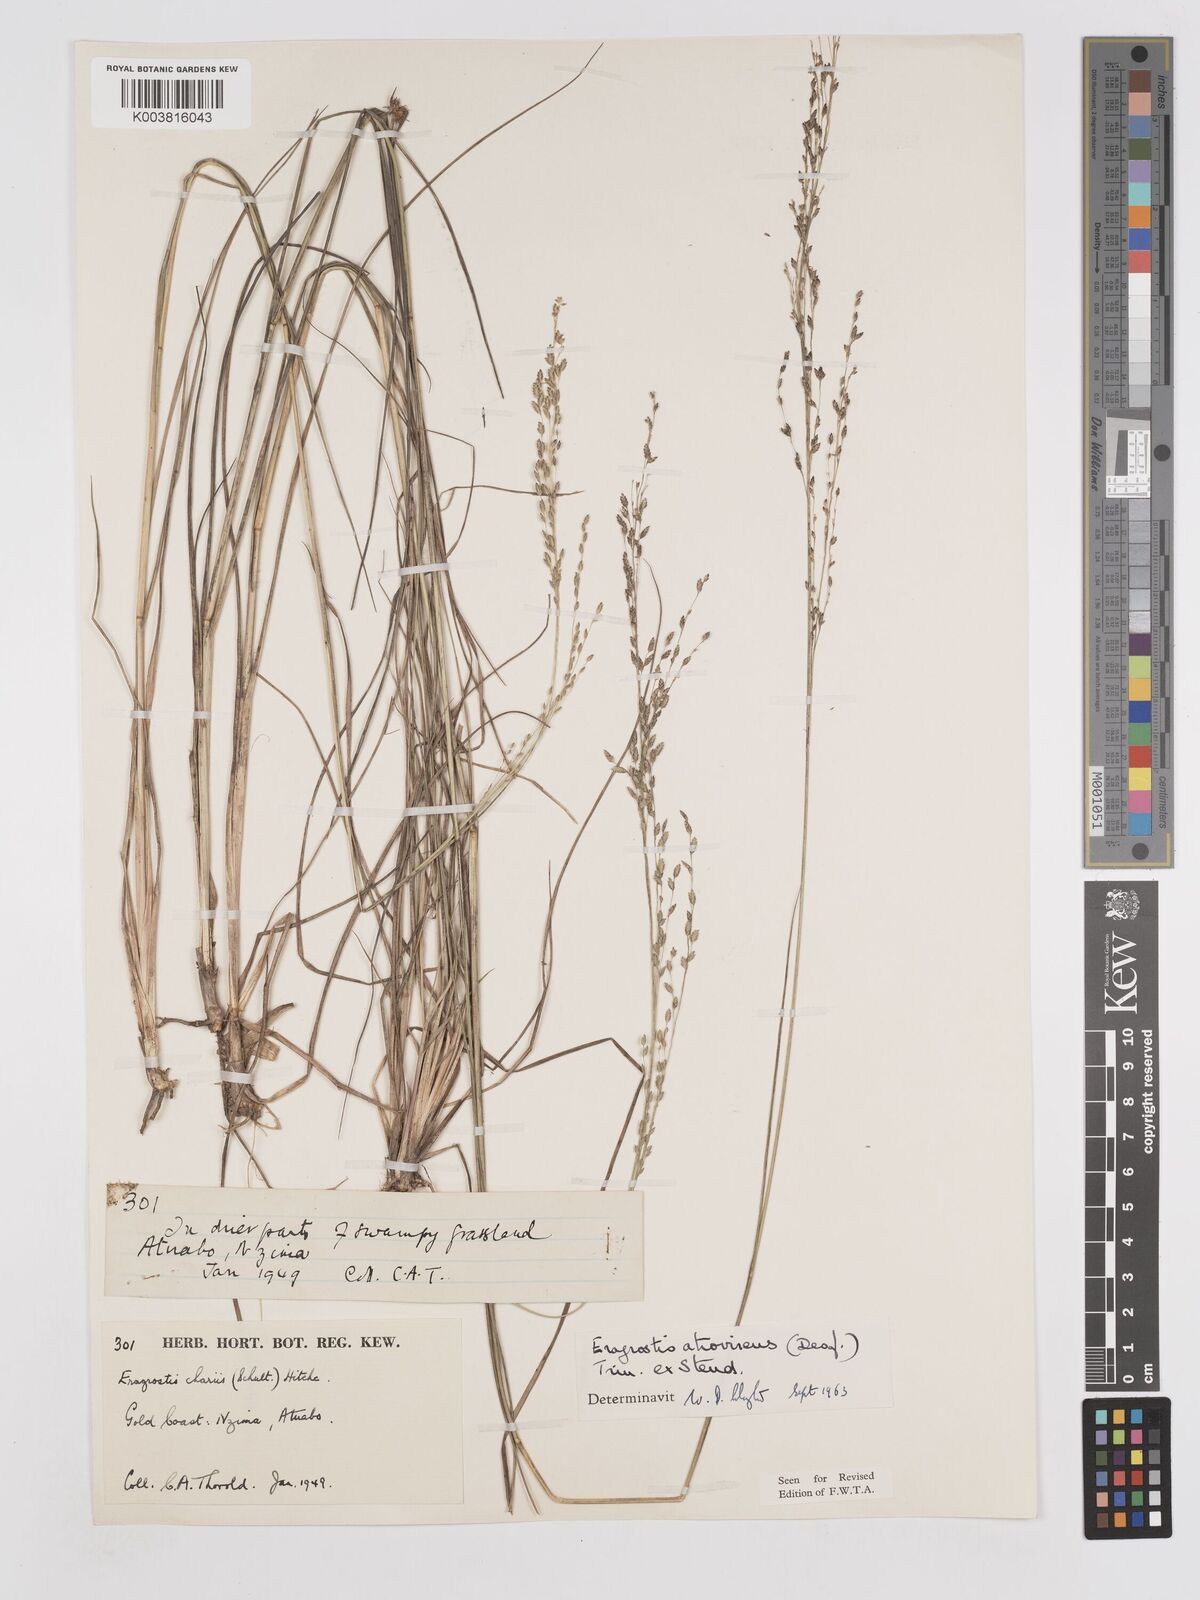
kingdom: Plantae
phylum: Tracheophyta
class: Liliopsida
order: Poales
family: Poaceae
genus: Eragrostis
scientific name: Eragrostis atrovirens
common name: Thalia lovegrass
